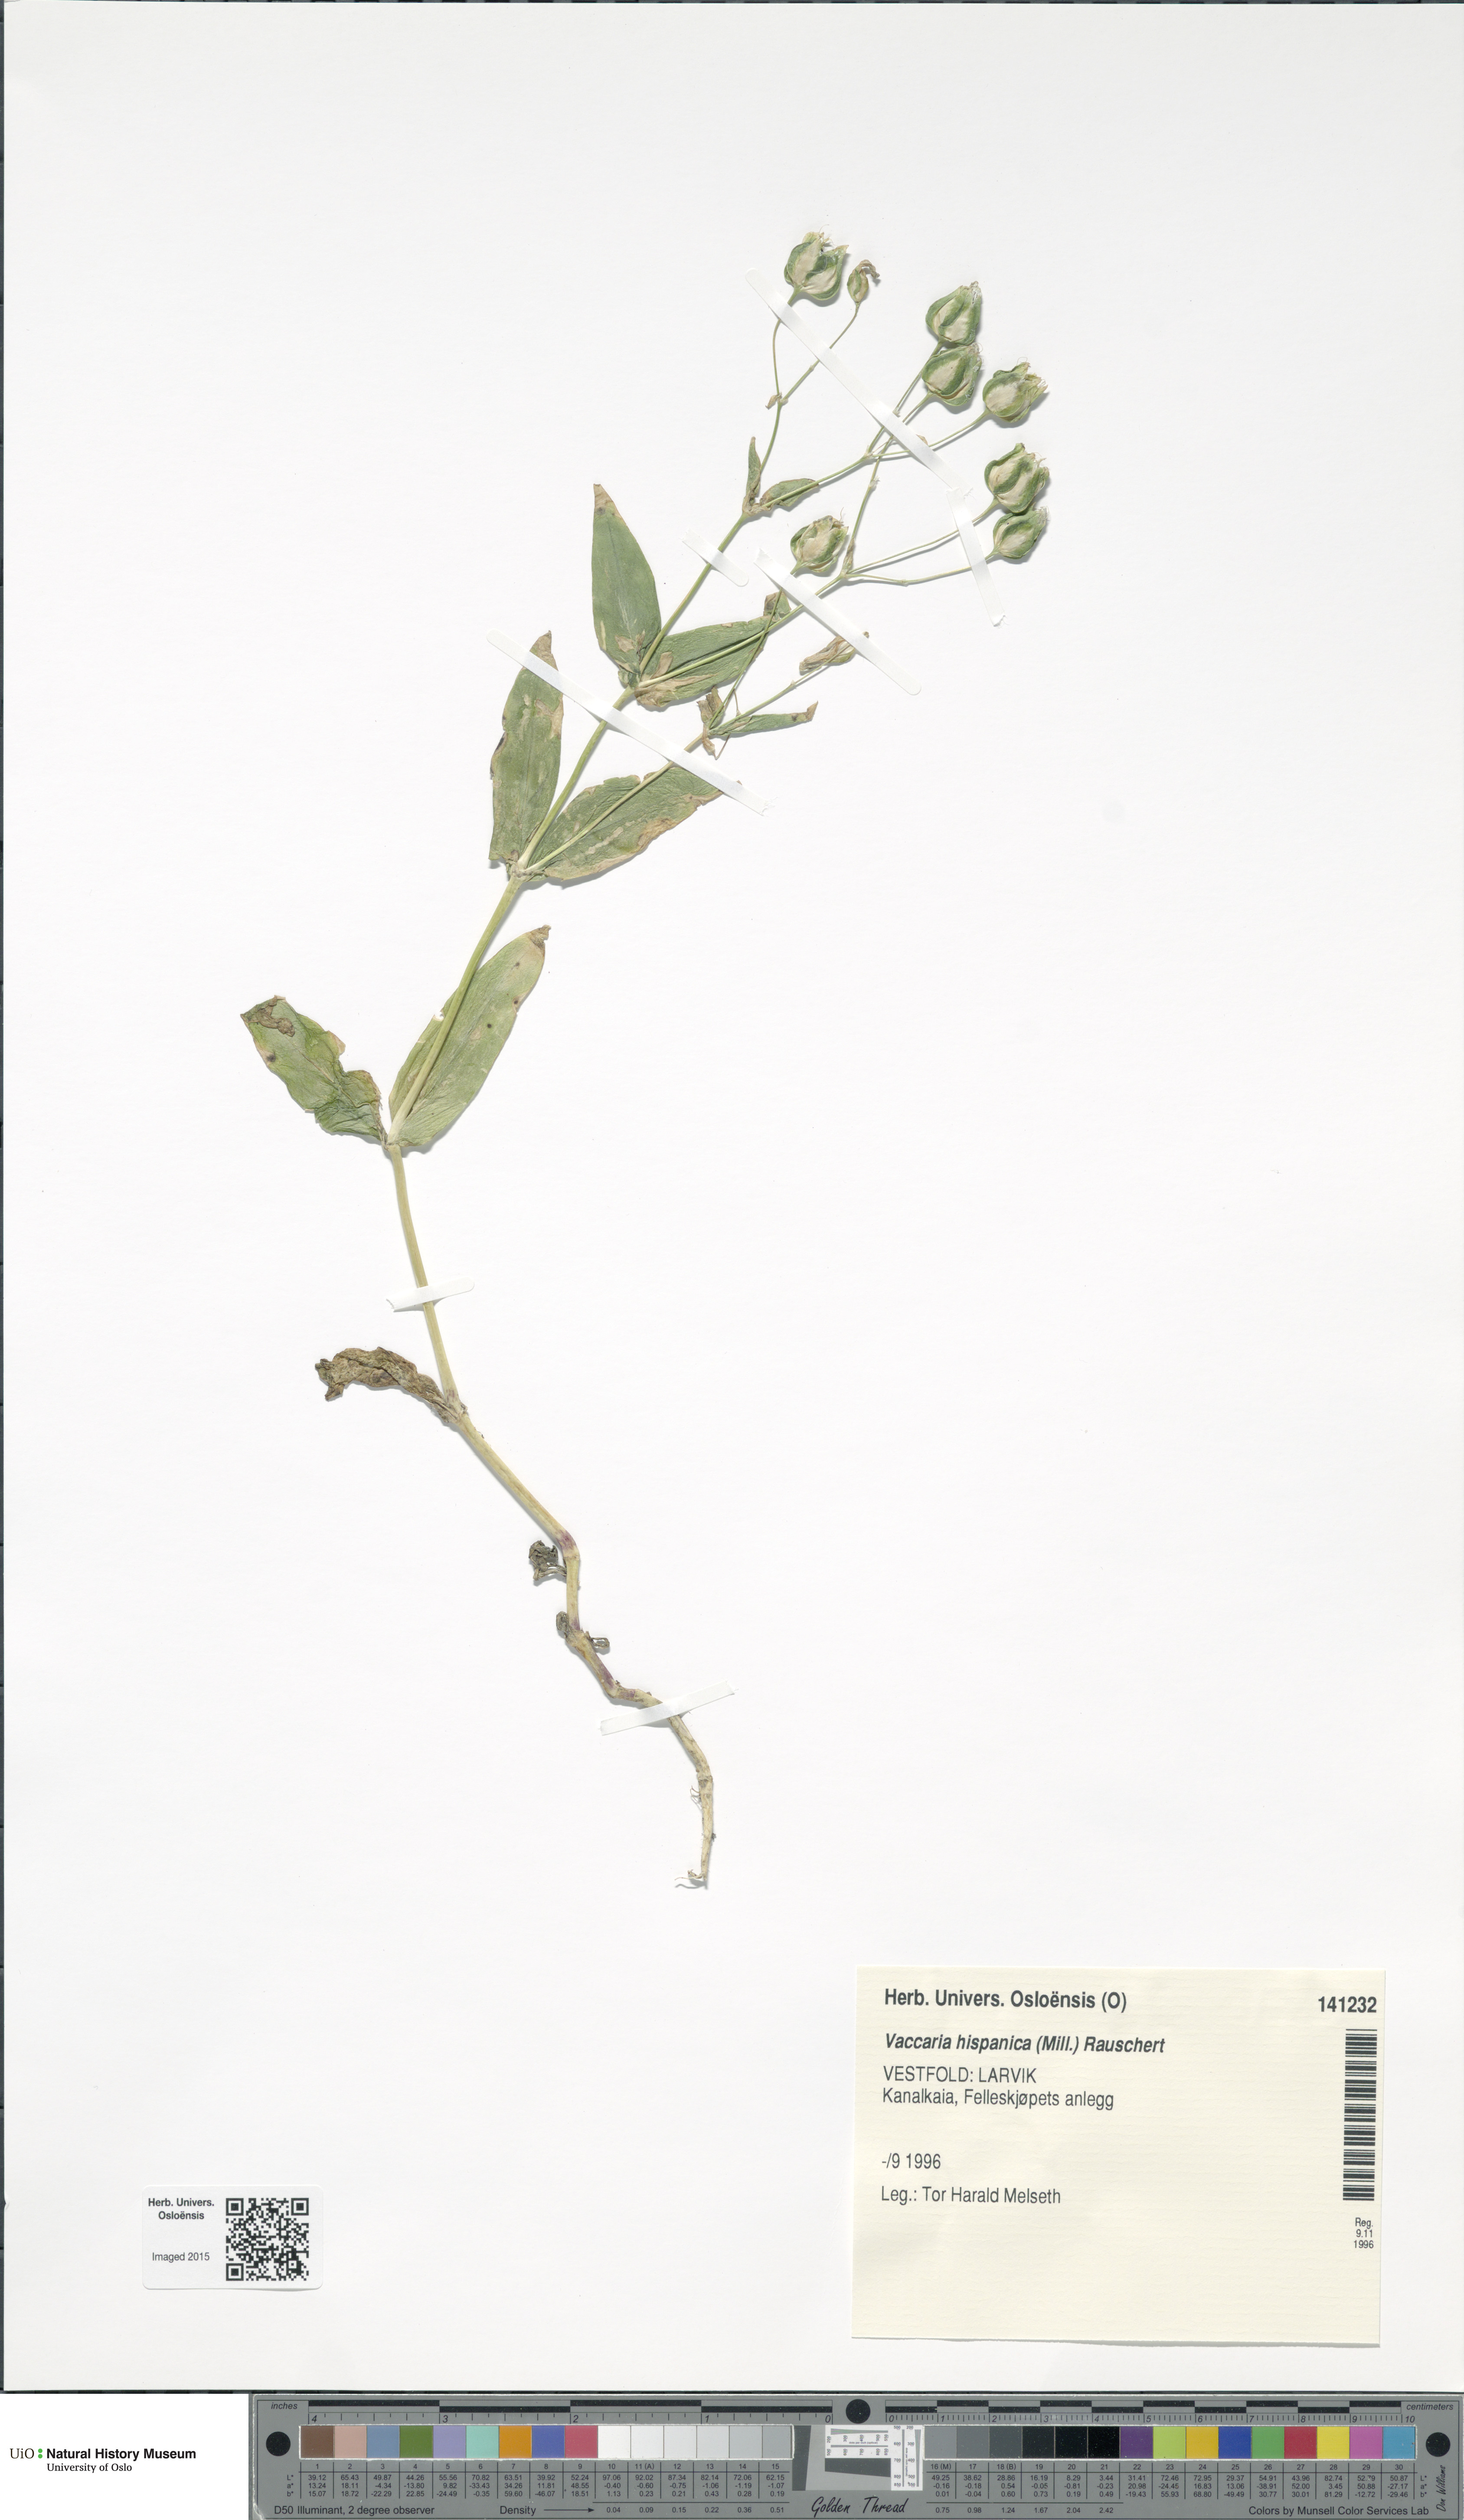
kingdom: Plantae
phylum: Tracheophyta
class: Magnoliopsida
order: Caryophyllales
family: Caryophyllaceae
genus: Gypsophila
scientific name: Gypsophila vaccaria
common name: Cow soapwort
